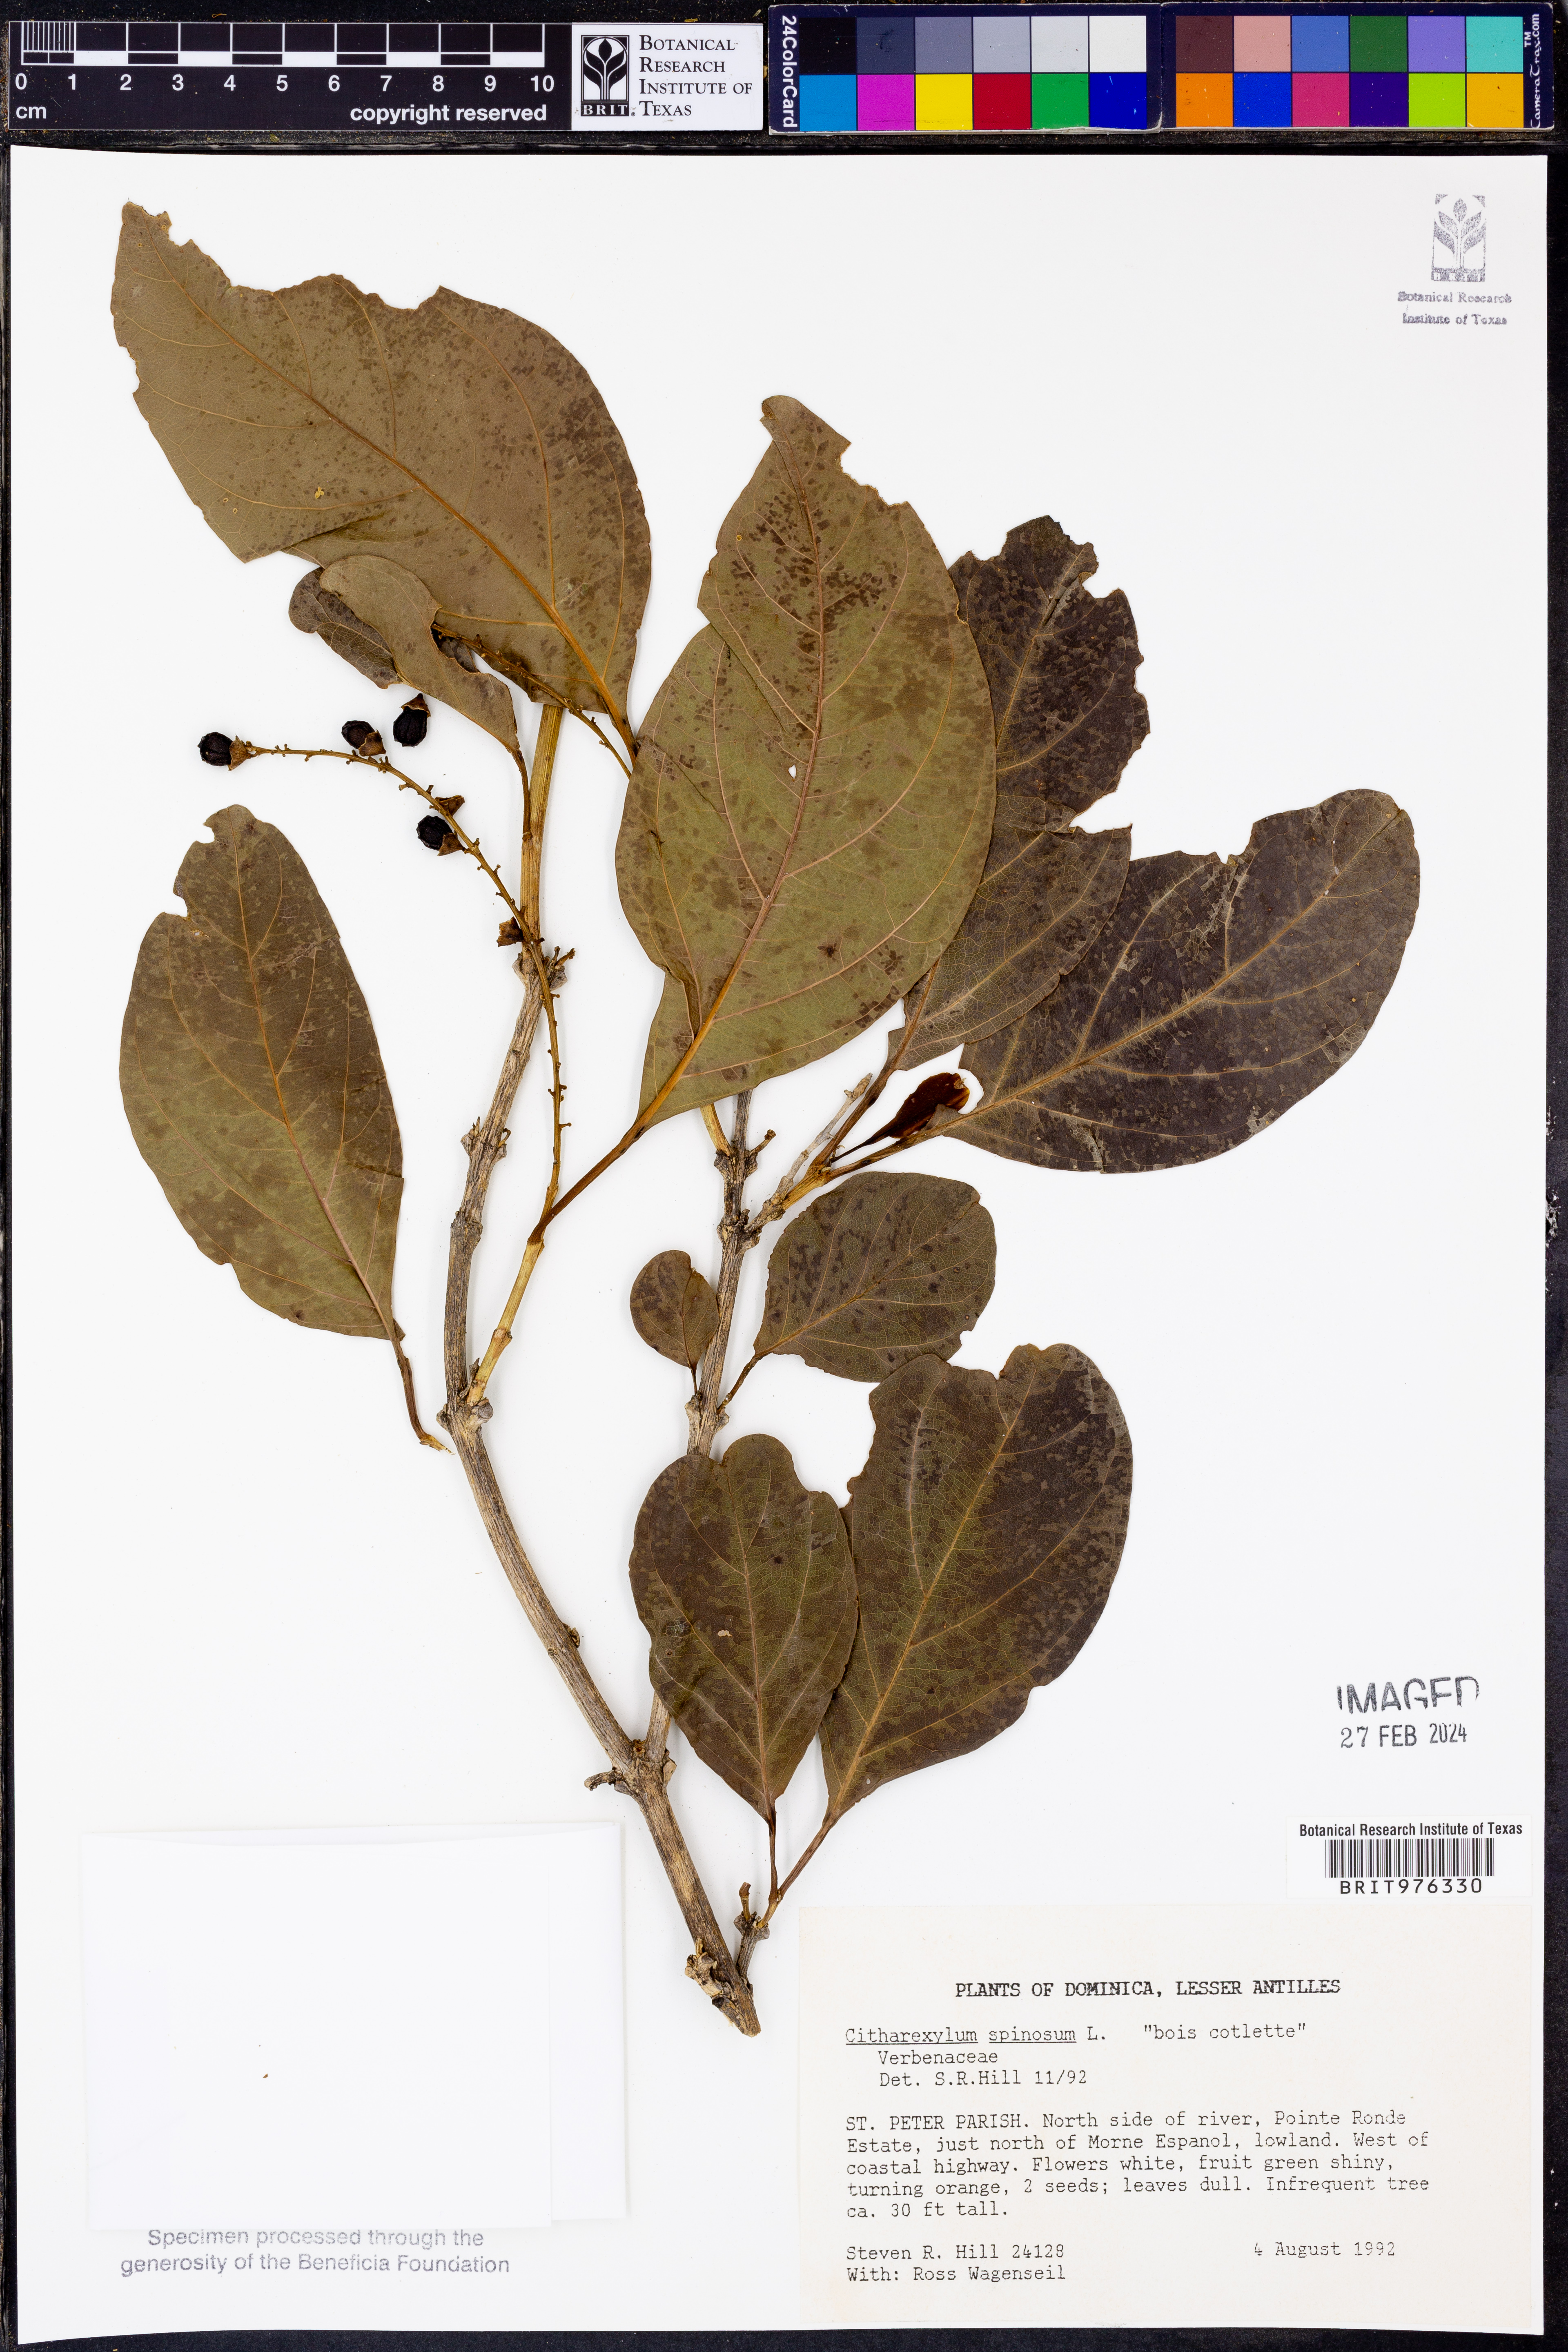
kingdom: Plantae
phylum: Tracheophyta
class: Magnoliopsida
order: Lamiales
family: Verbenaceae
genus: Citharexylum
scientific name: Citharexylum
